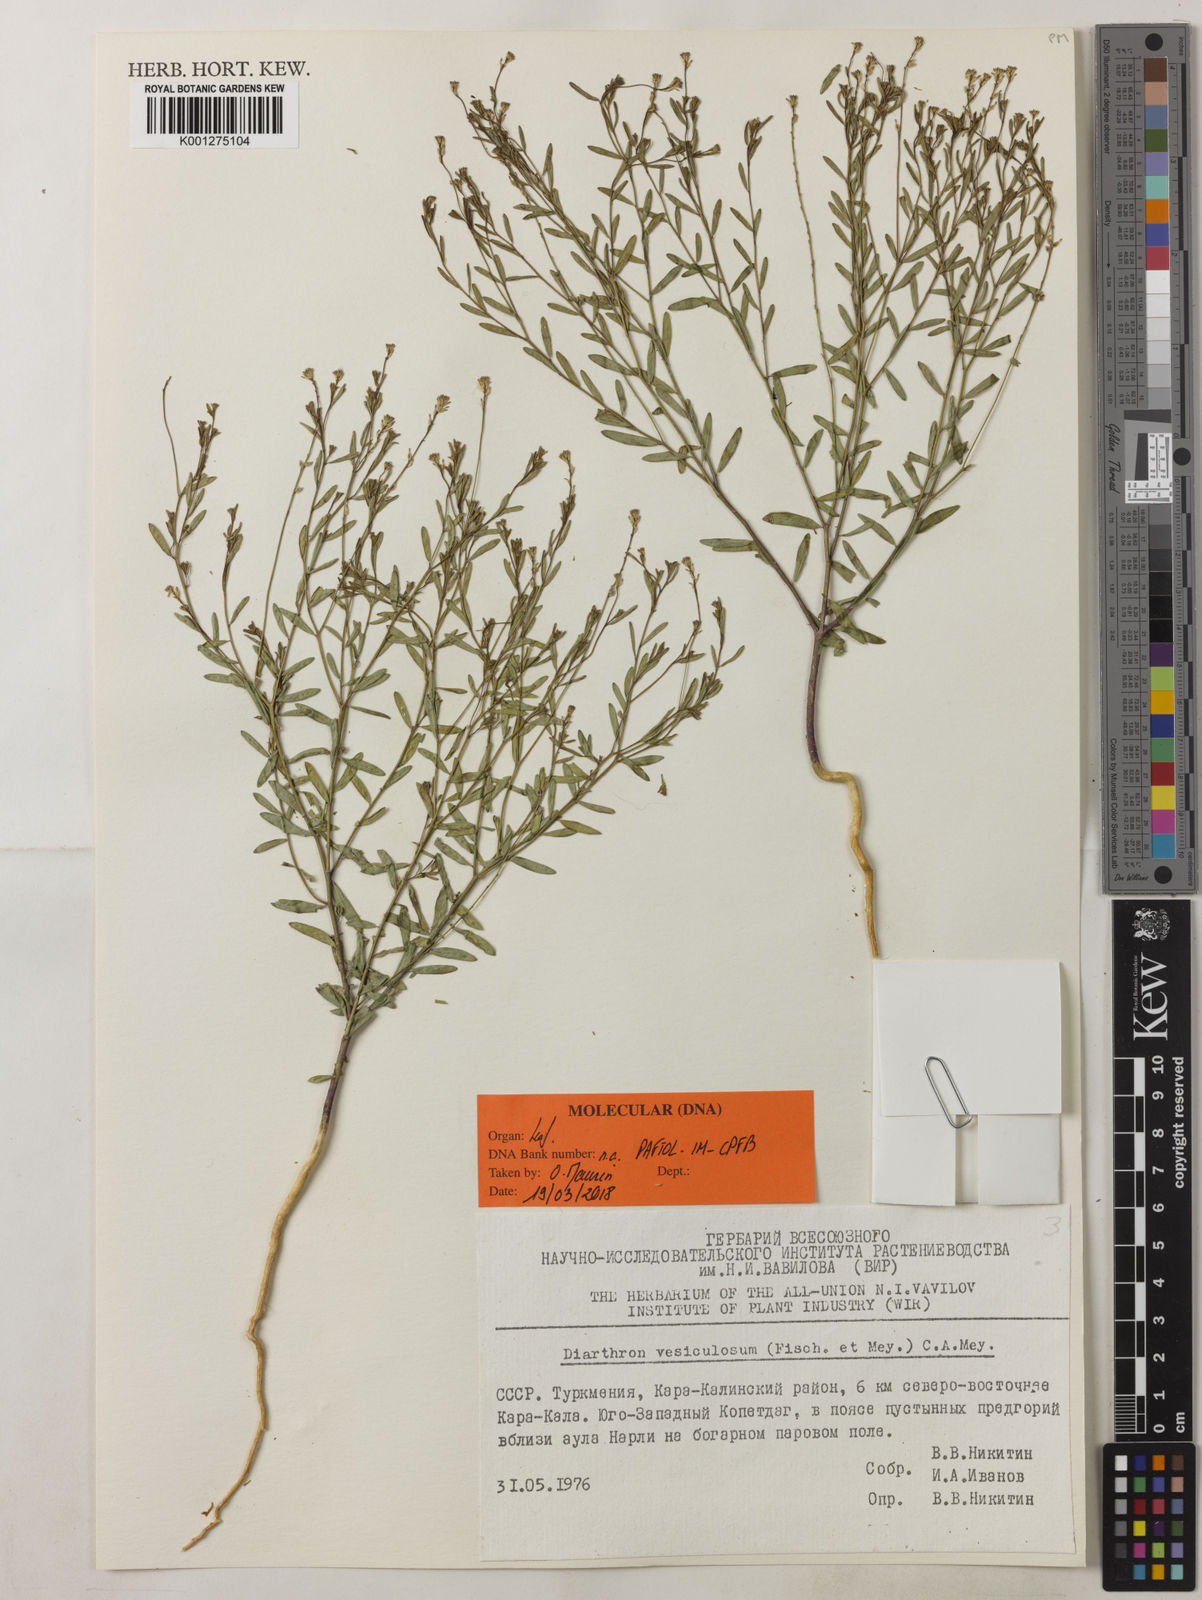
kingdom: Plantae
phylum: Tracheophyta
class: Magnoliopsida
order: Malvales
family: Thymelaeaceae
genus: Diarthron
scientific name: Diarthron vesiculosum
